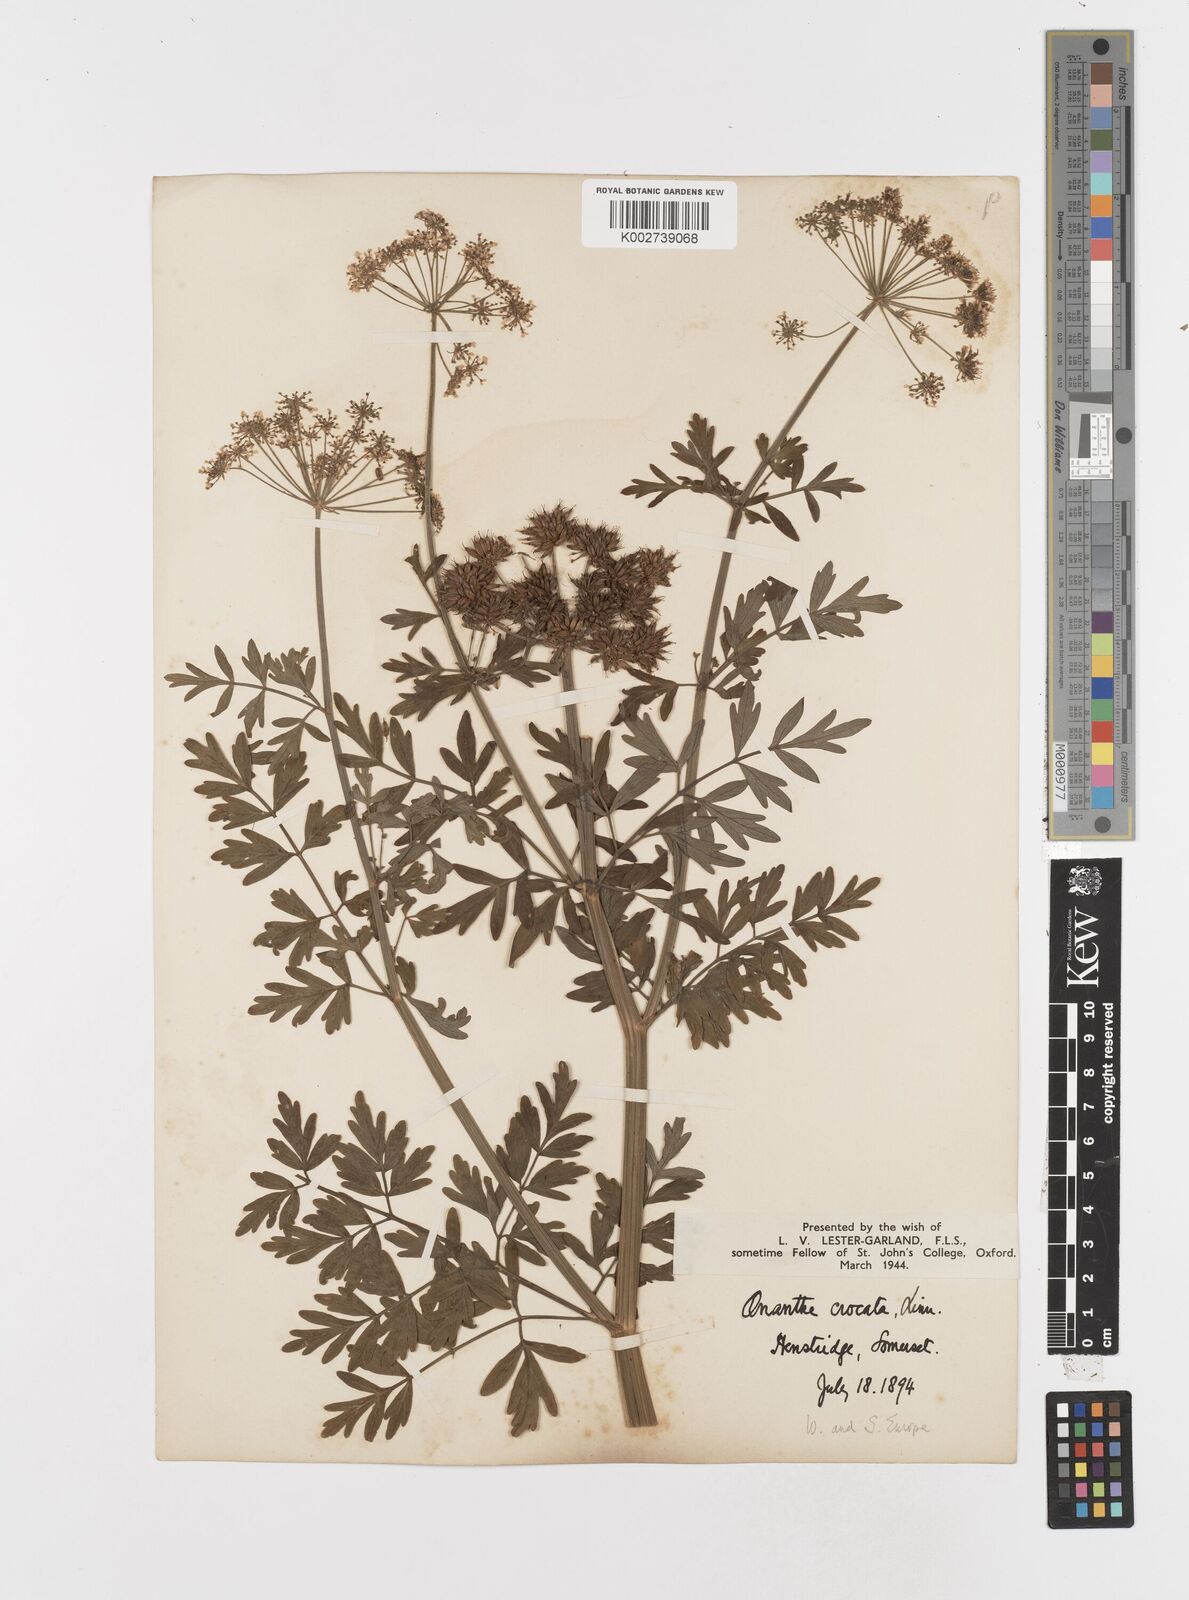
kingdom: Plantae
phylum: Tracheophyta
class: Magnoliopsida
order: Apiales
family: Apiaceae
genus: Oenanthe
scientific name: Oenanthe crocata
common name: Hemlock water-dropwort
